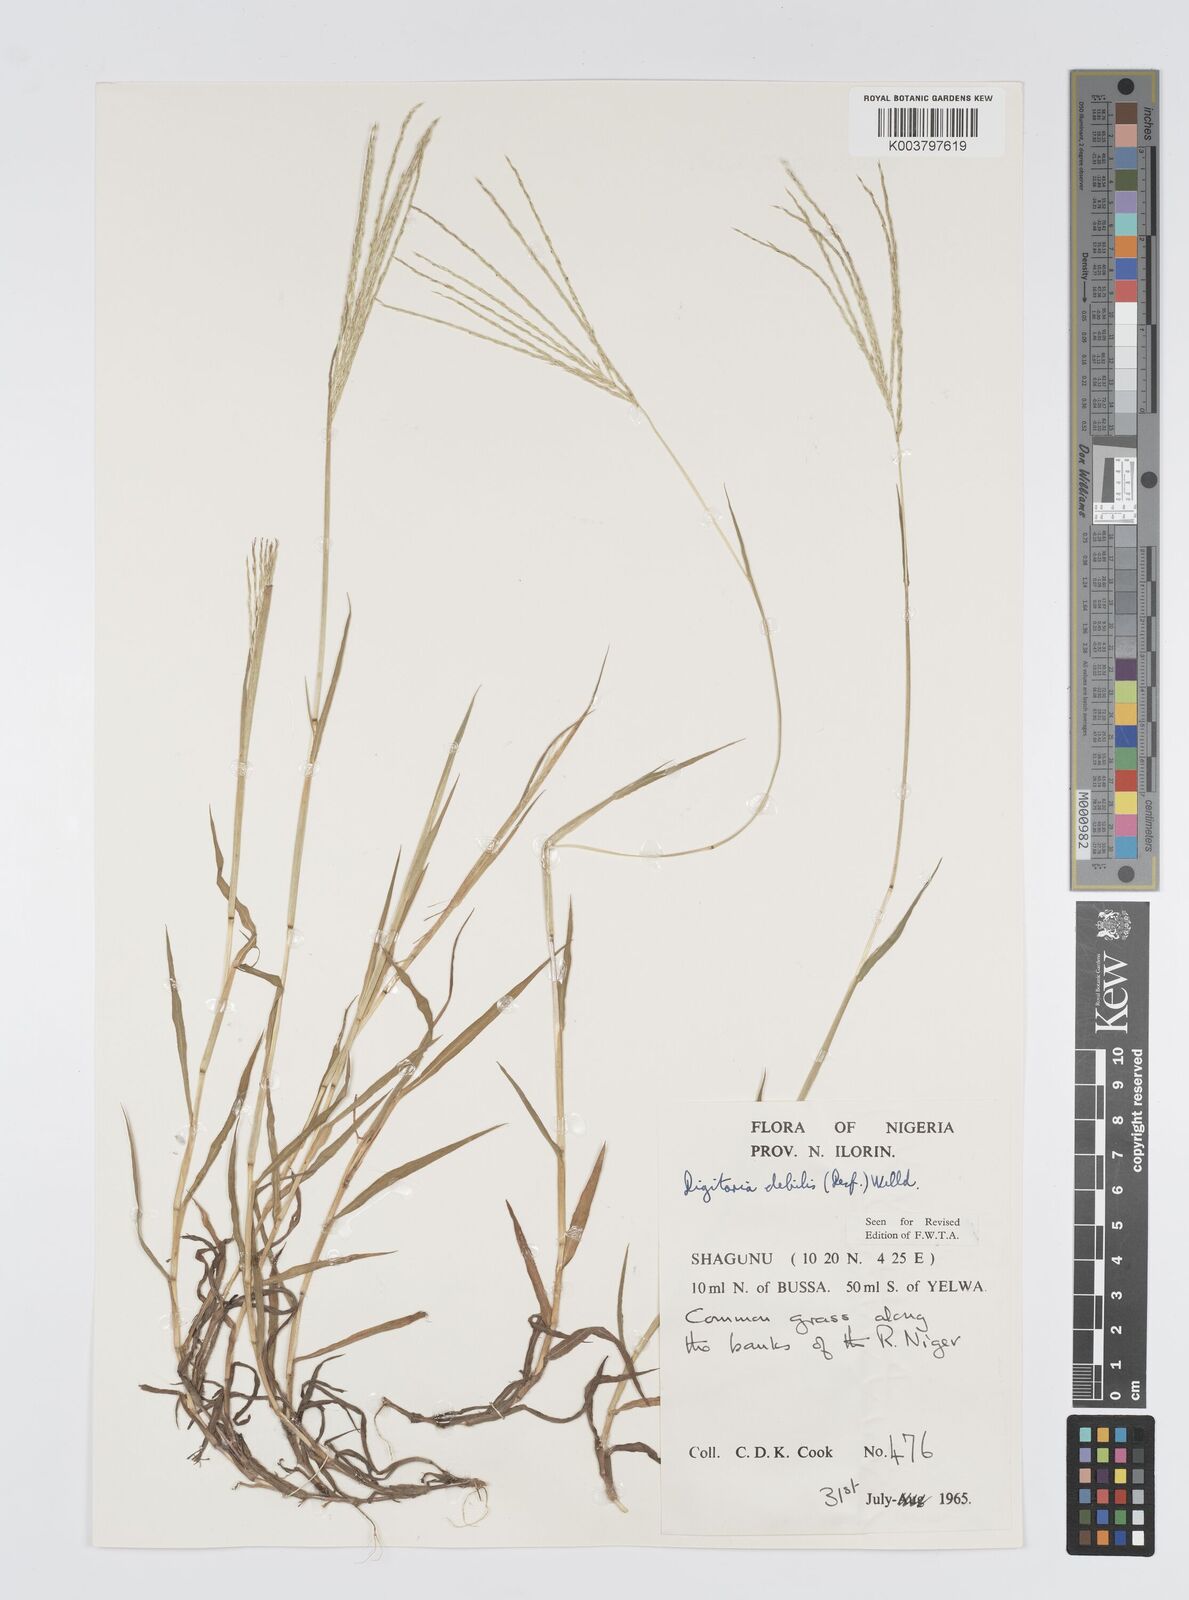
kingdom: Plantae
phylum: Tracheophyta
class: Liliopsida
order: Poales
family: Poaceae
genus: Digitaria
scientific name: Digitaria debilis
